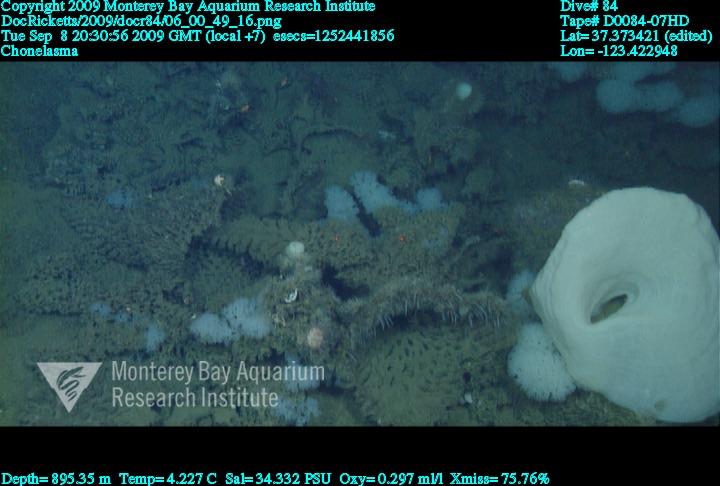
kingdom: Animalia
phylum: Porifera
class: Hexactinellida
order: Sceptrulophora
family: Euretidae
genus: Chonelasma
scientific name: Chonelasma
